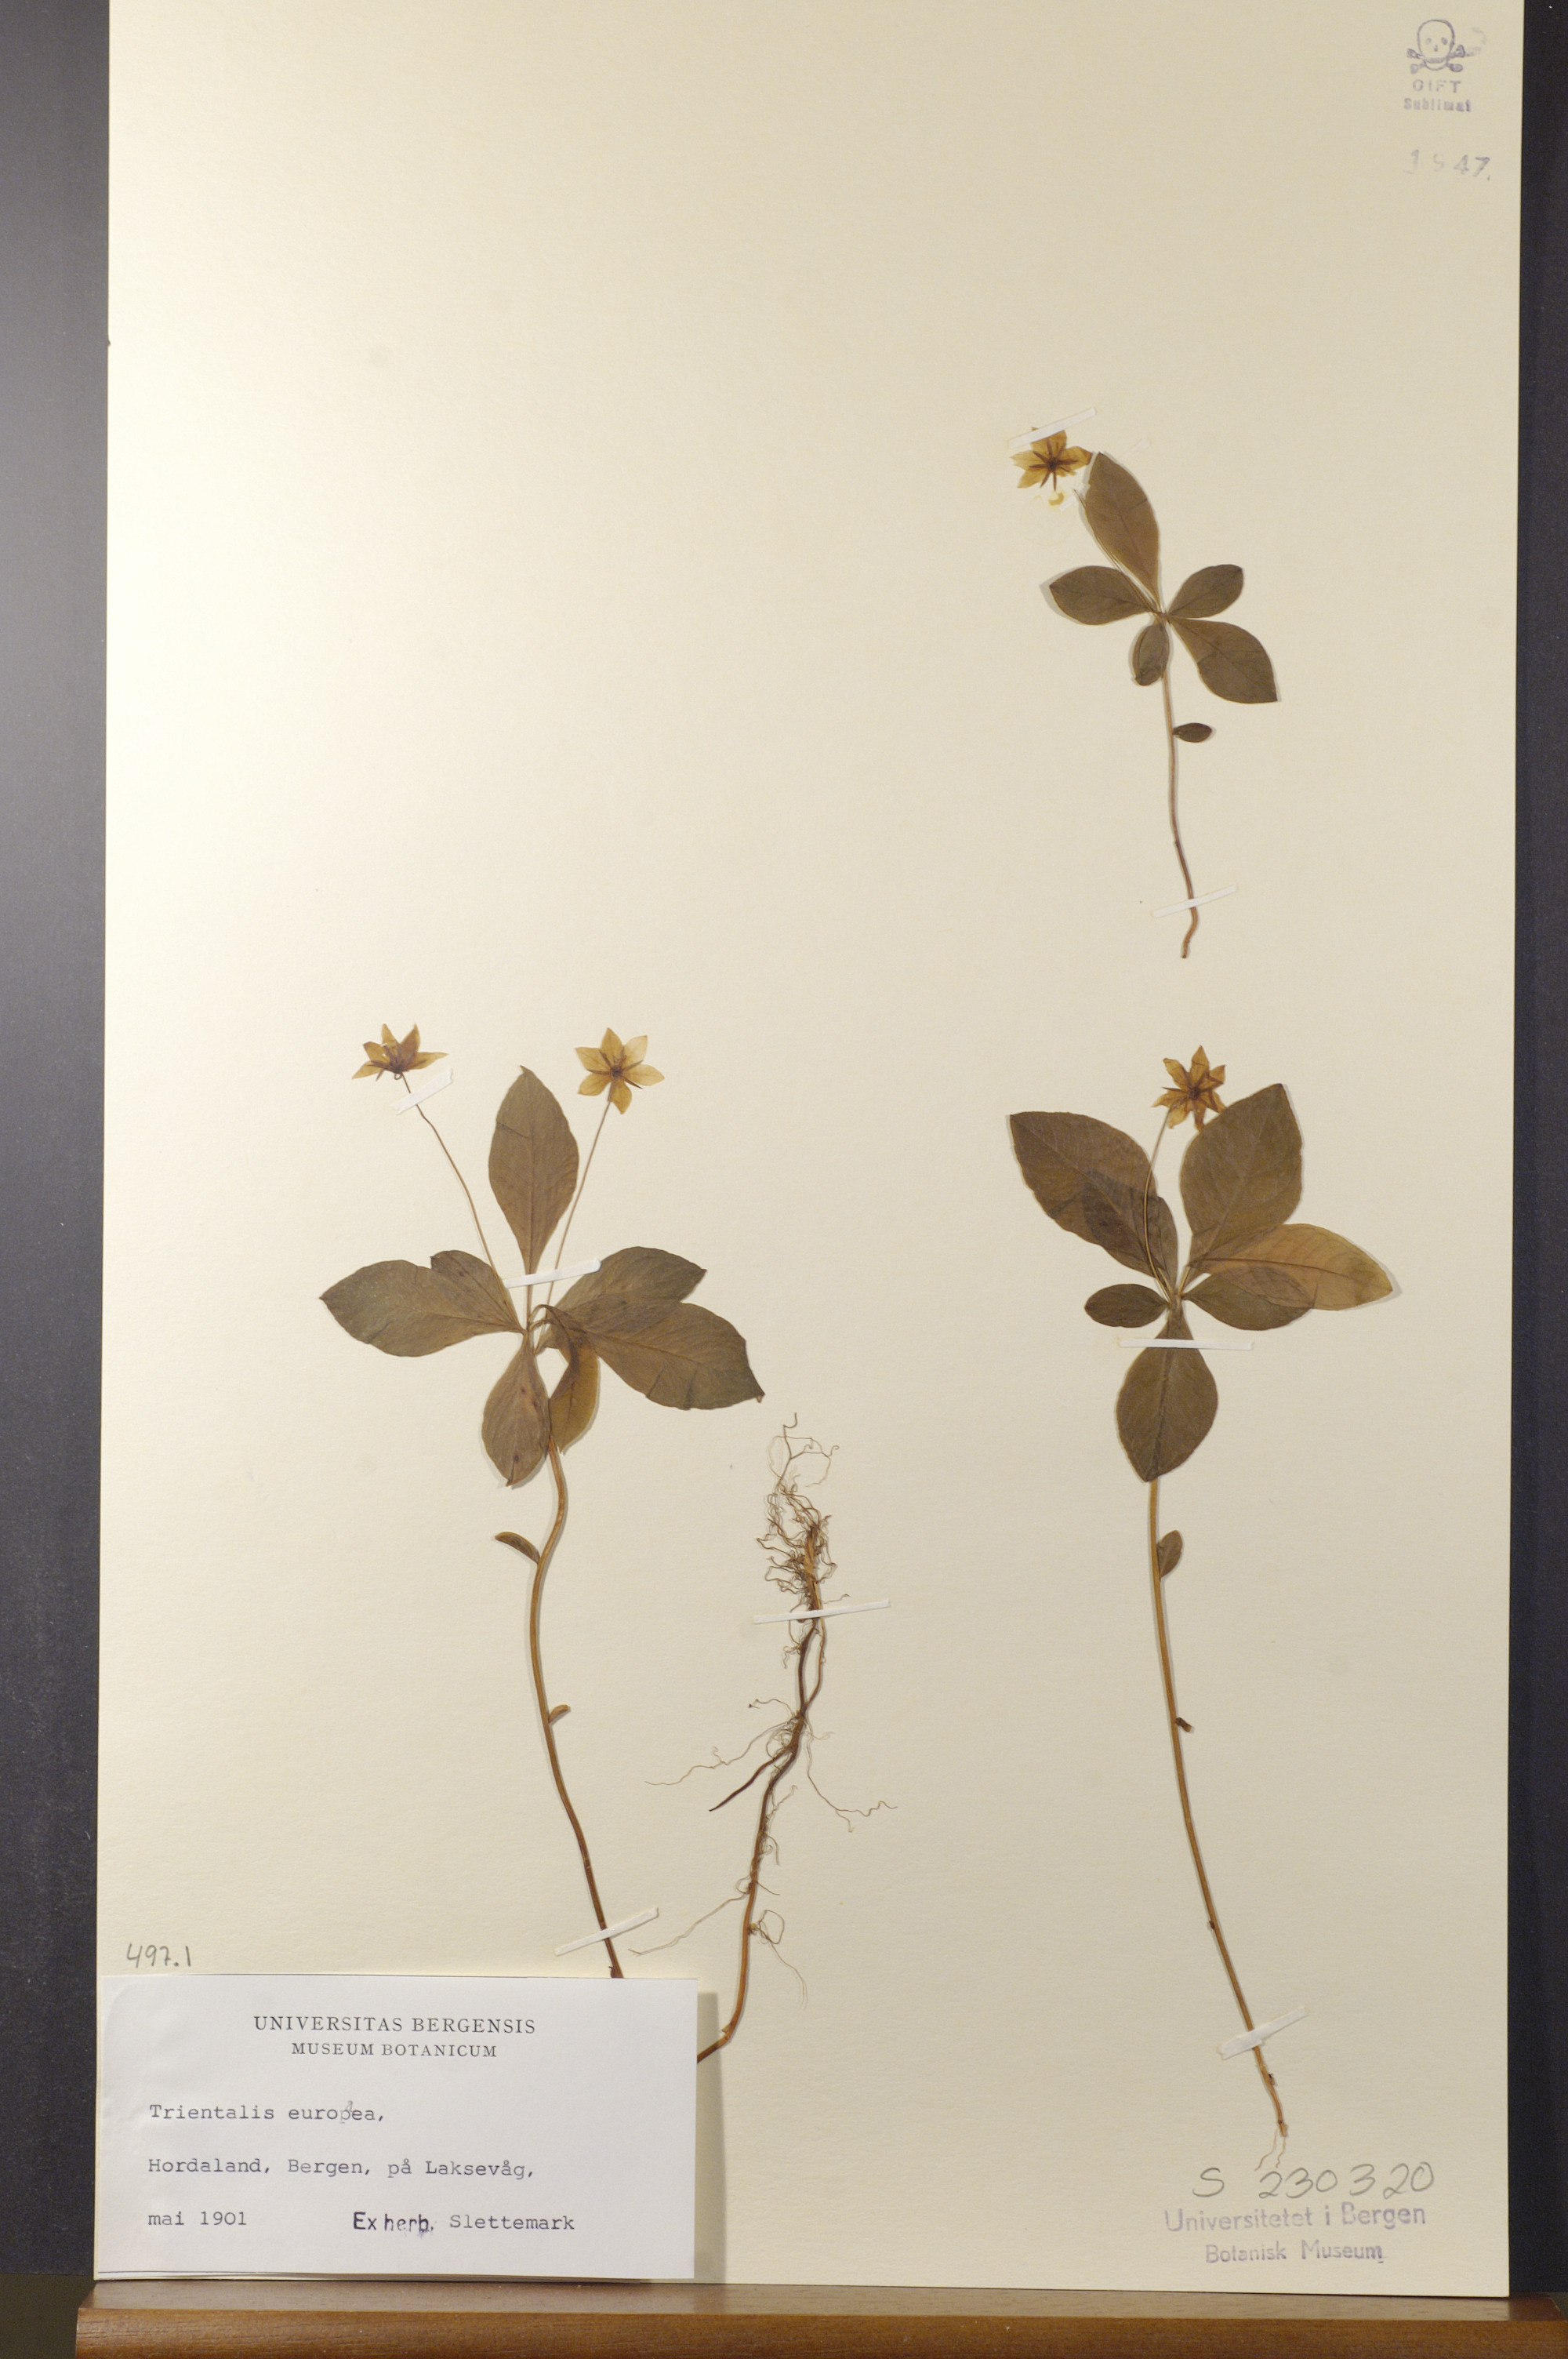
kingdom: Plantae
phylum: Tracheophyta
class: Magnoliopsida
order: Ericales
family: Primulaceae
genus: Lysimachia
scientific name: Lysimachia europaea
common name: Arctic starflower
